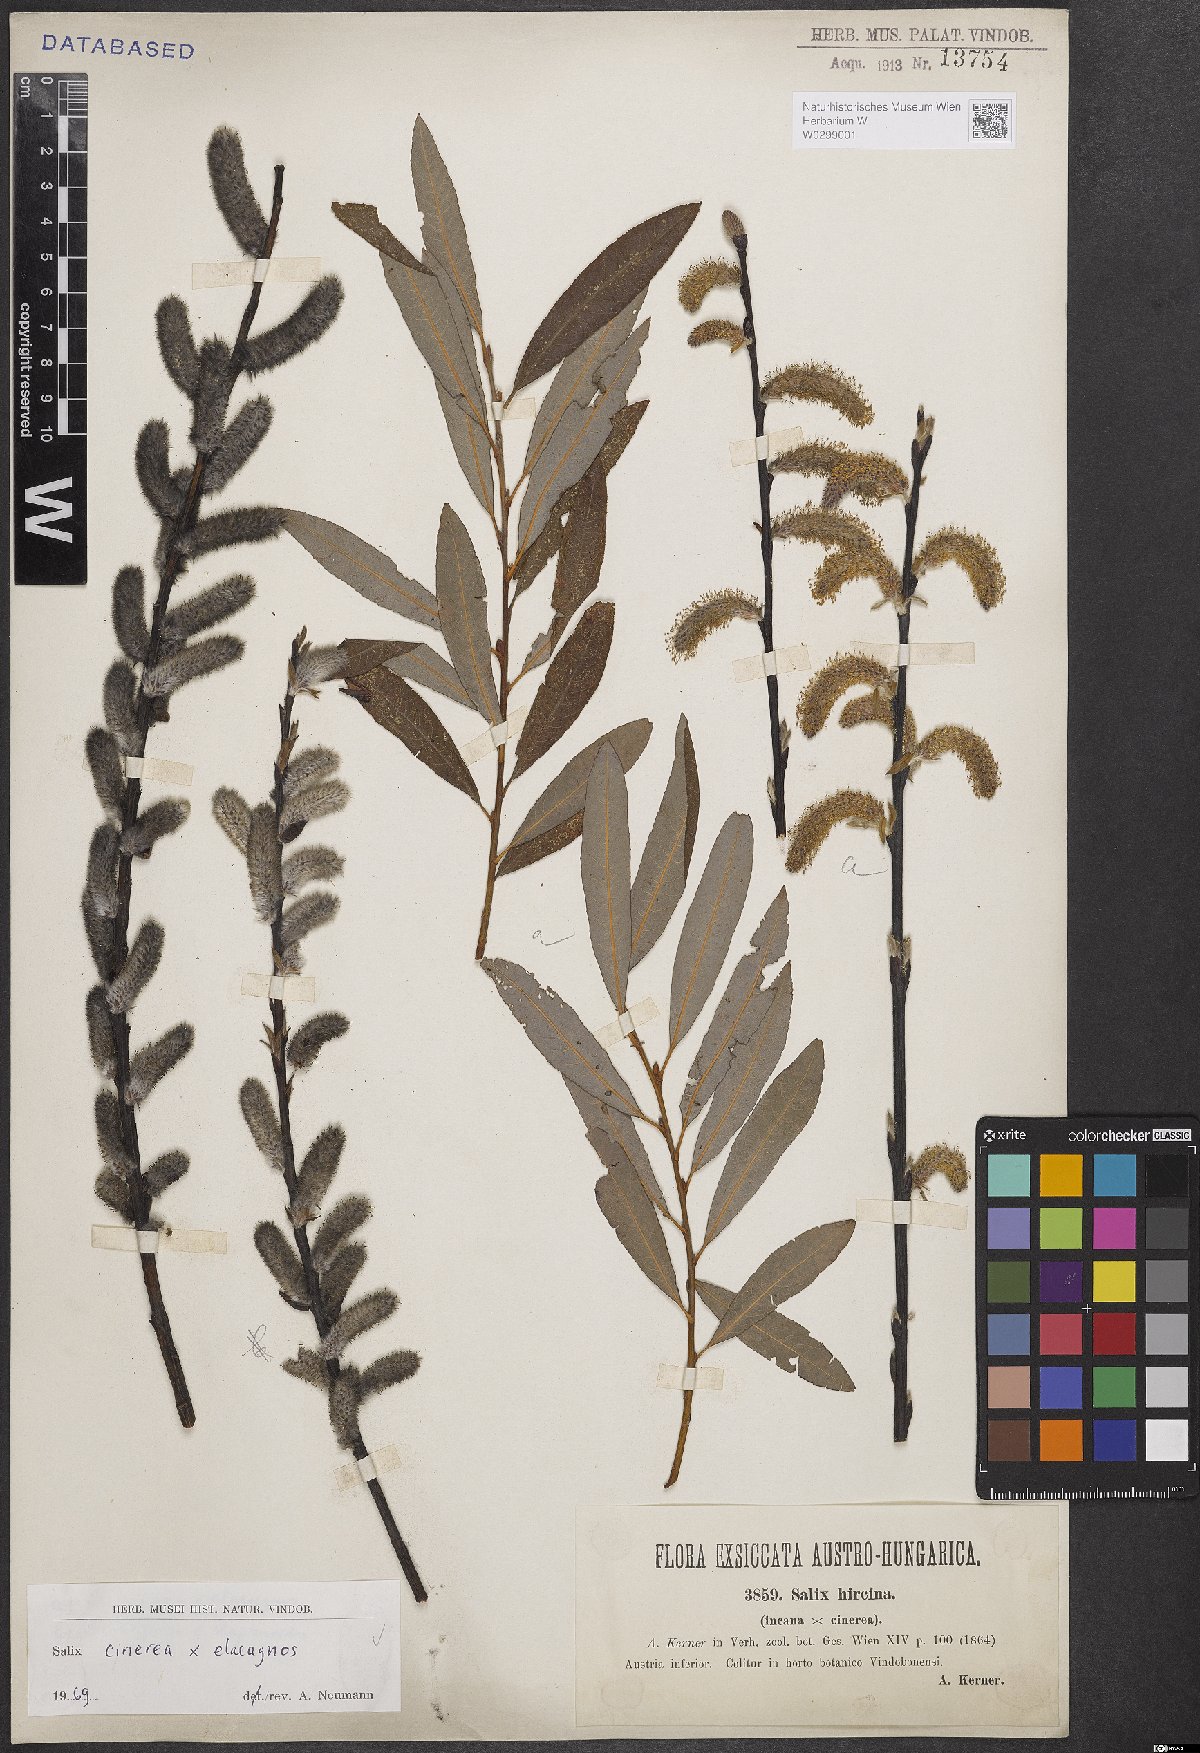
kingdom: Plantae
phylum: Tracheophyta
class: Magnoliopsida
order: Malpighiales
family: Salicaceae
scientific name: Salicaceae
